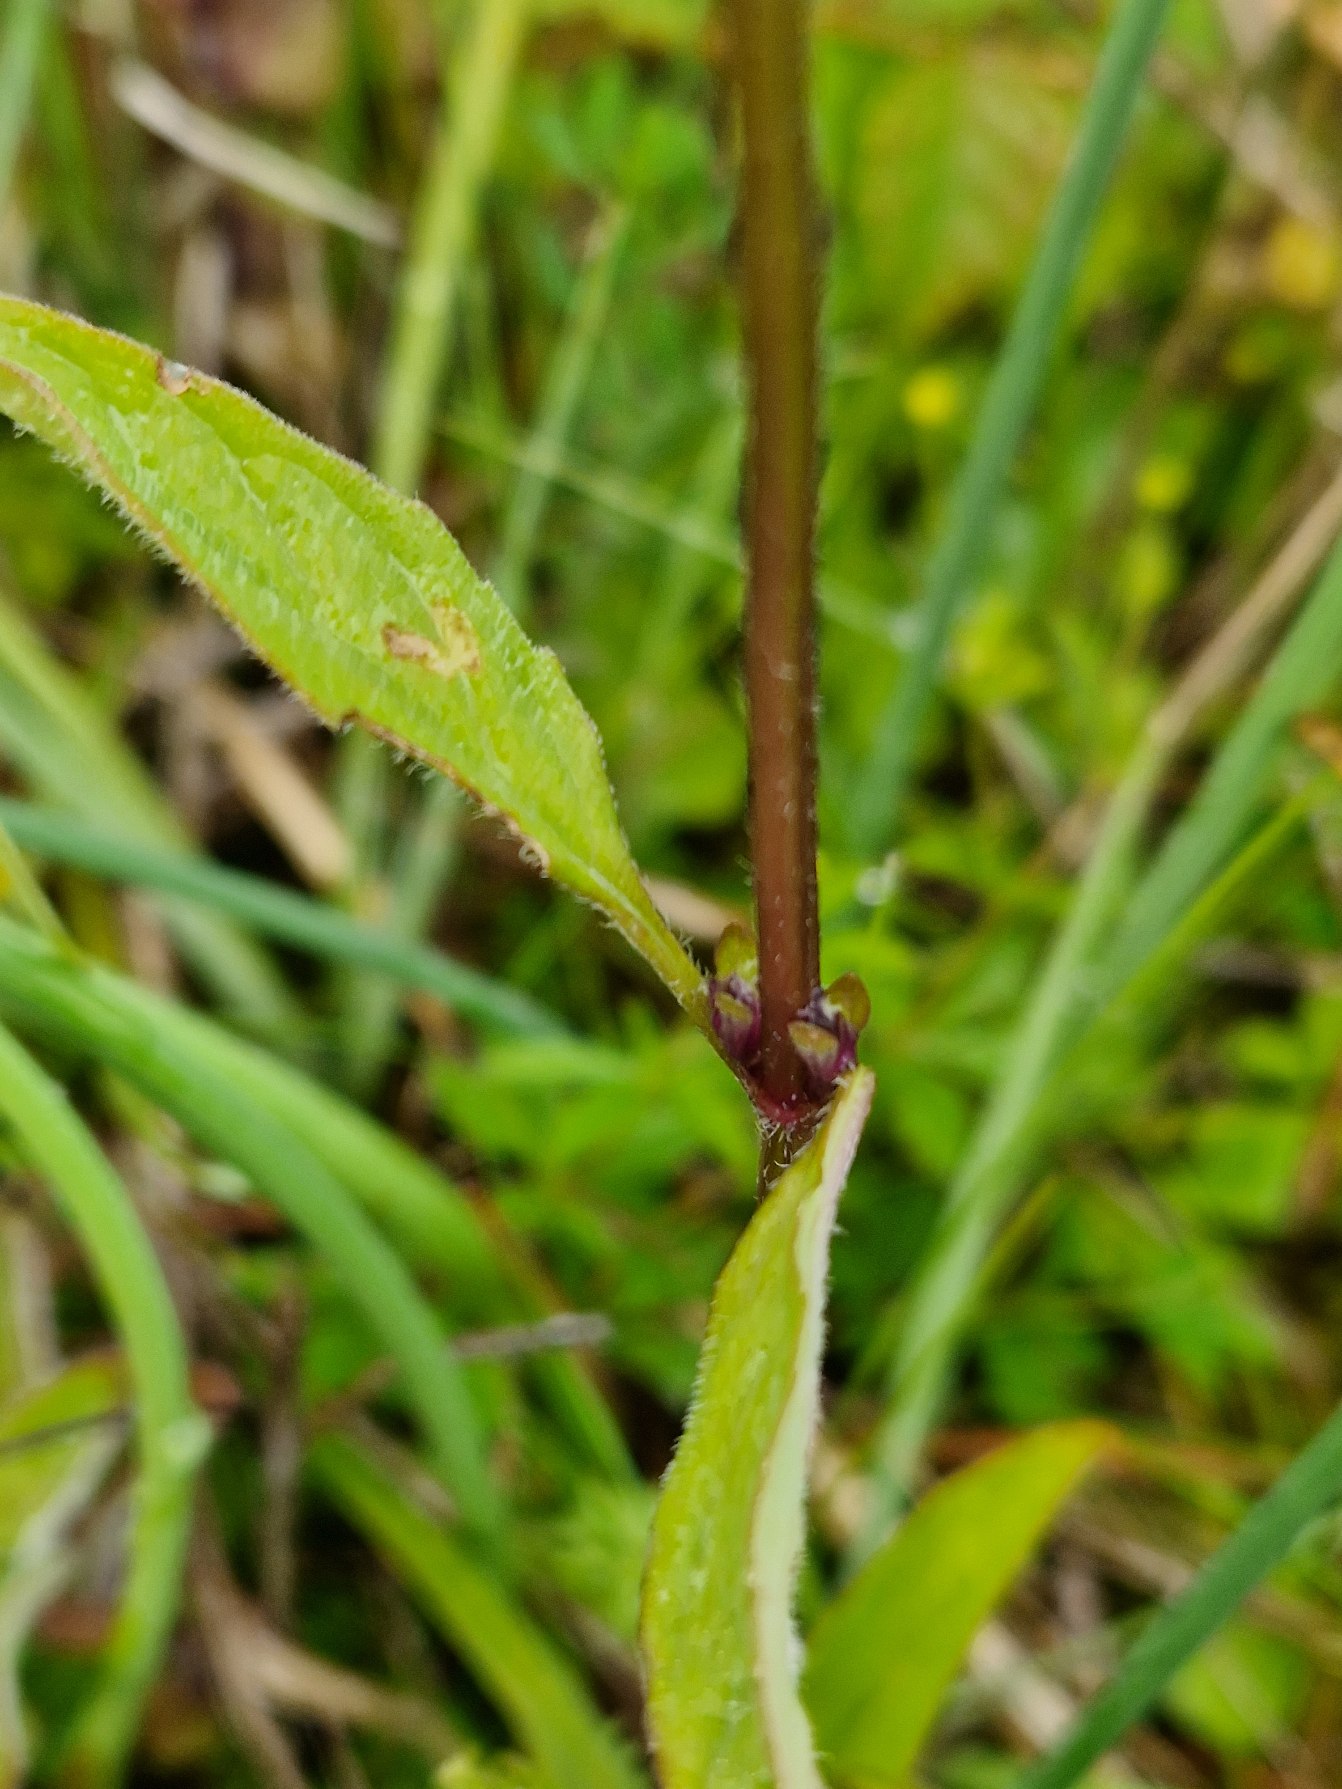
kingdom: Plantae
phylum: Tracheophyta
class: Magnoliopsida
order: Lamiales
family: Lamiaceae
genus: Prunella
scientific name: Prunella vulgaris
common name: Almindelig brunelle
